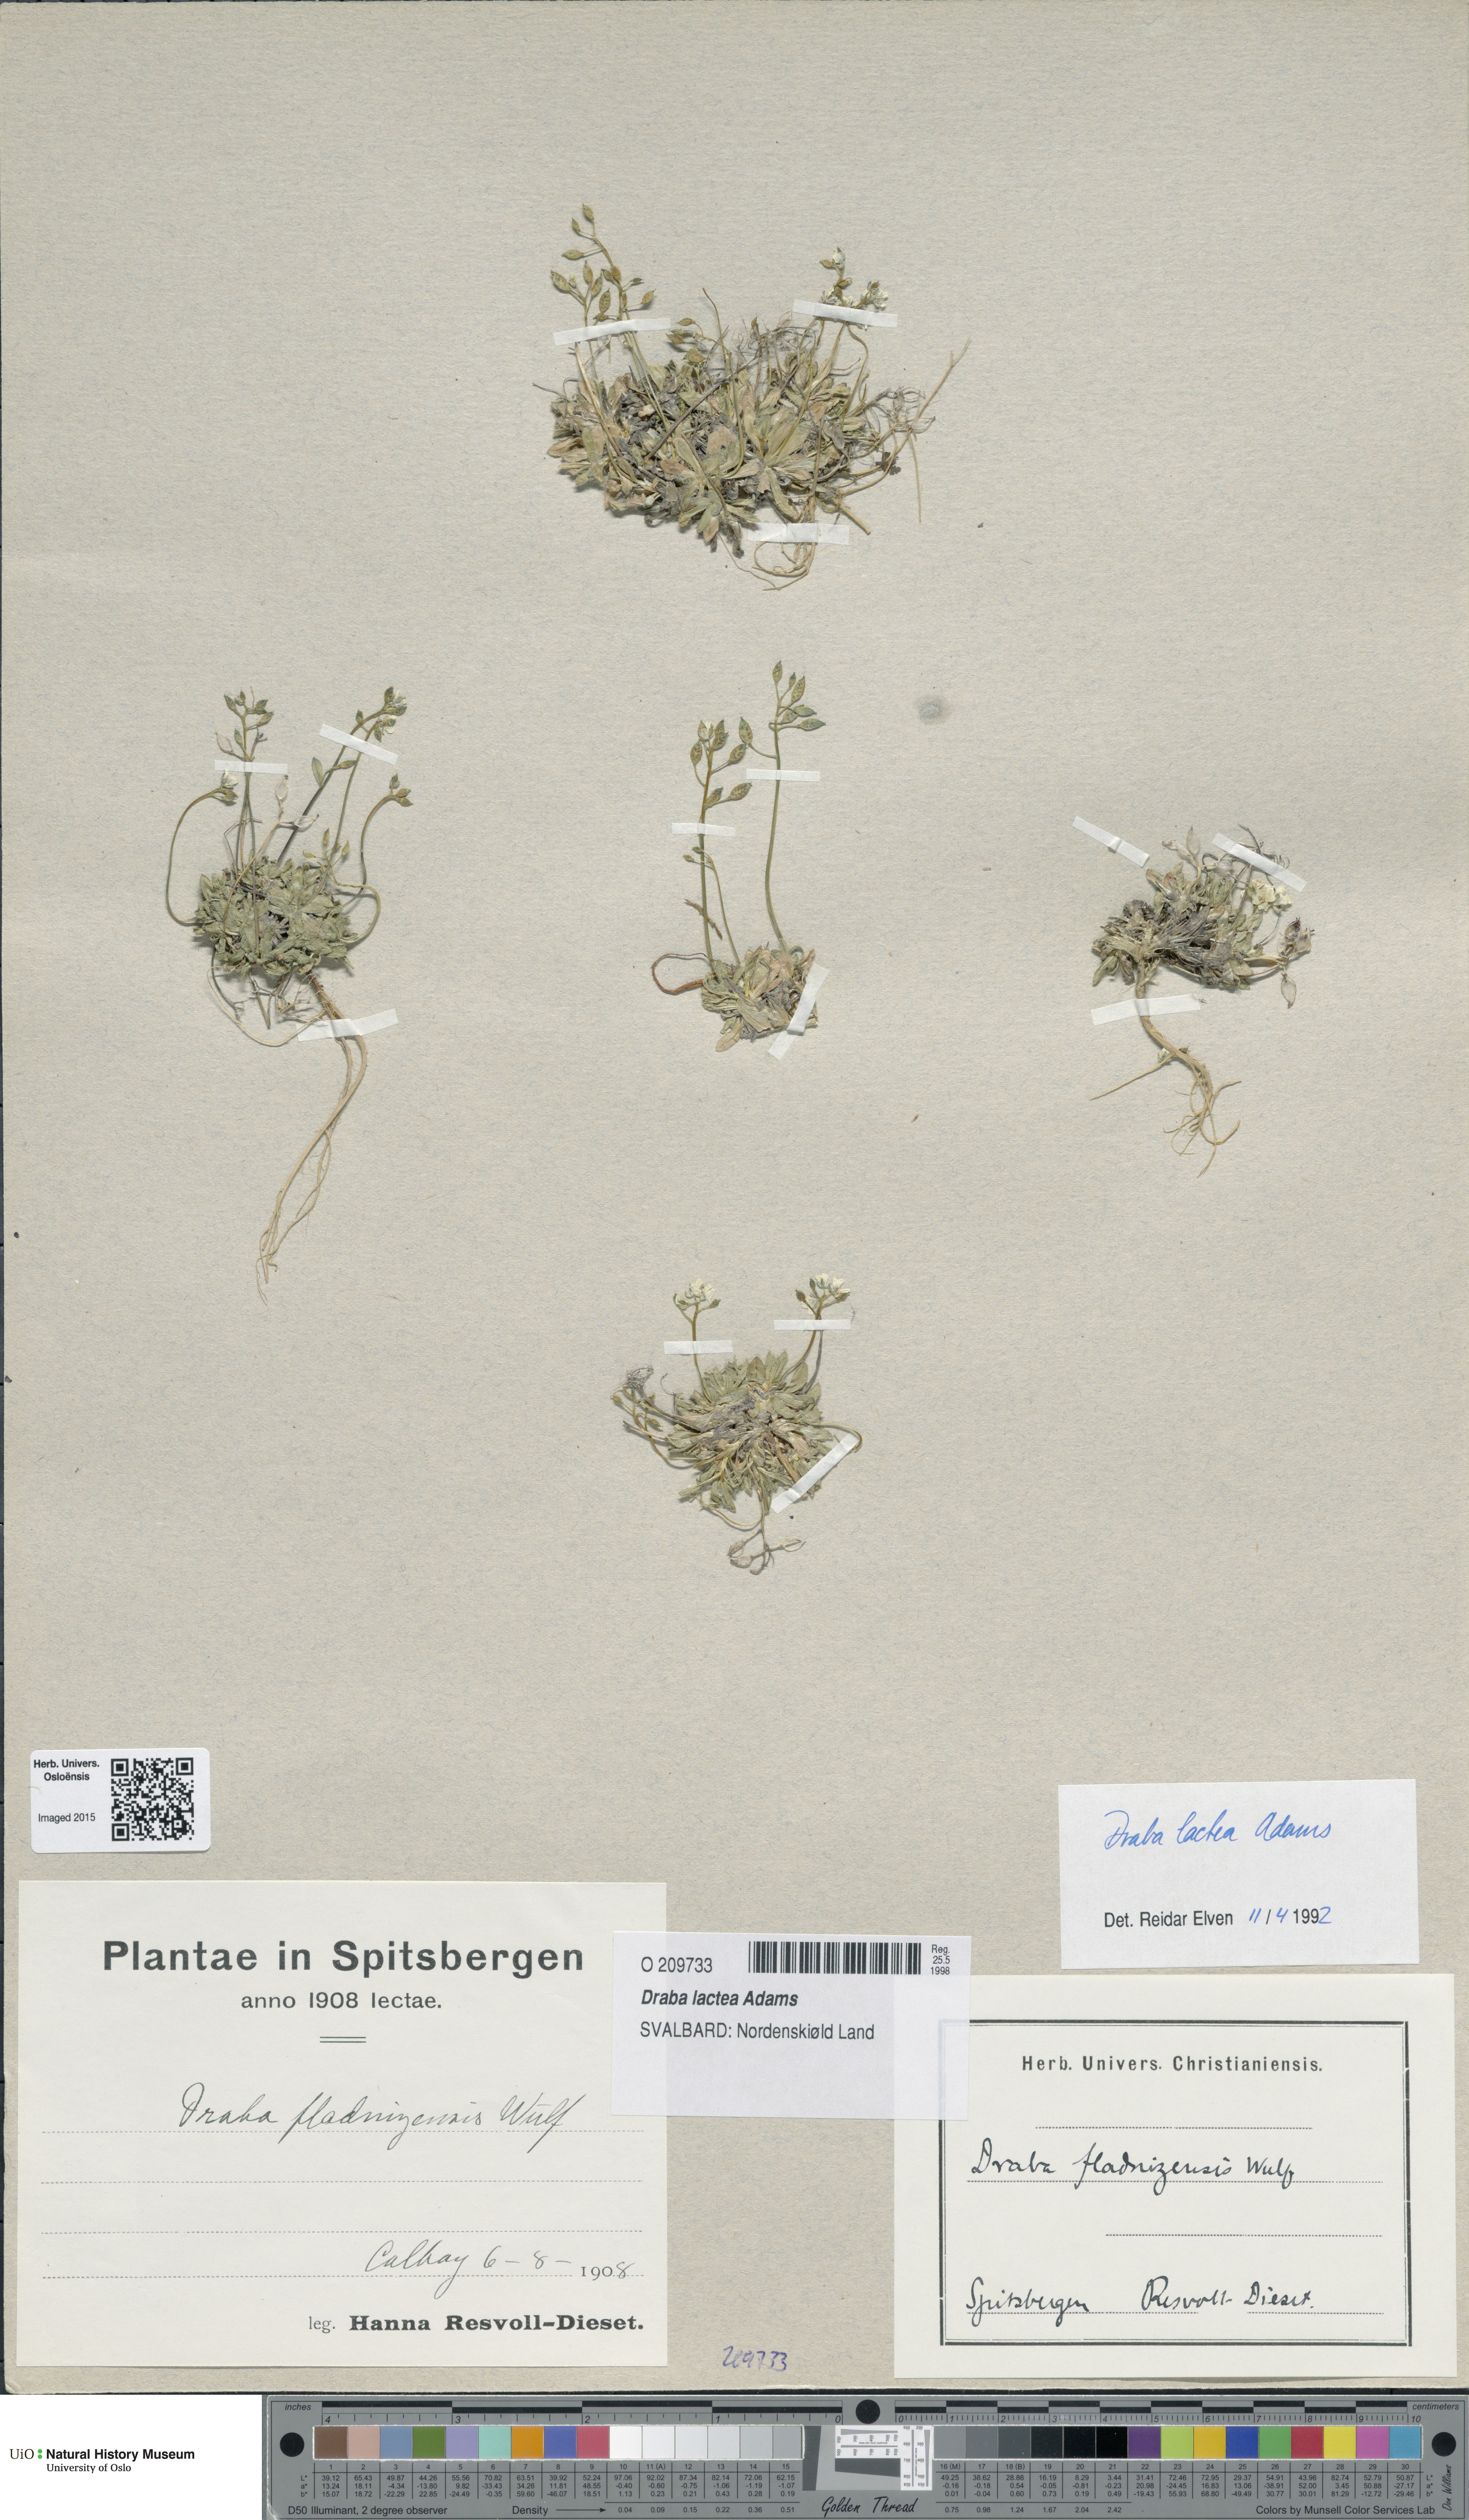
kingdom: Plantae
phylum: Tracheophyta
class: Magnoliopsida
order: Brassicales
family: Brassicaceae
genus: Draba
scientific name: Draba lactea
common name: Milky draba
